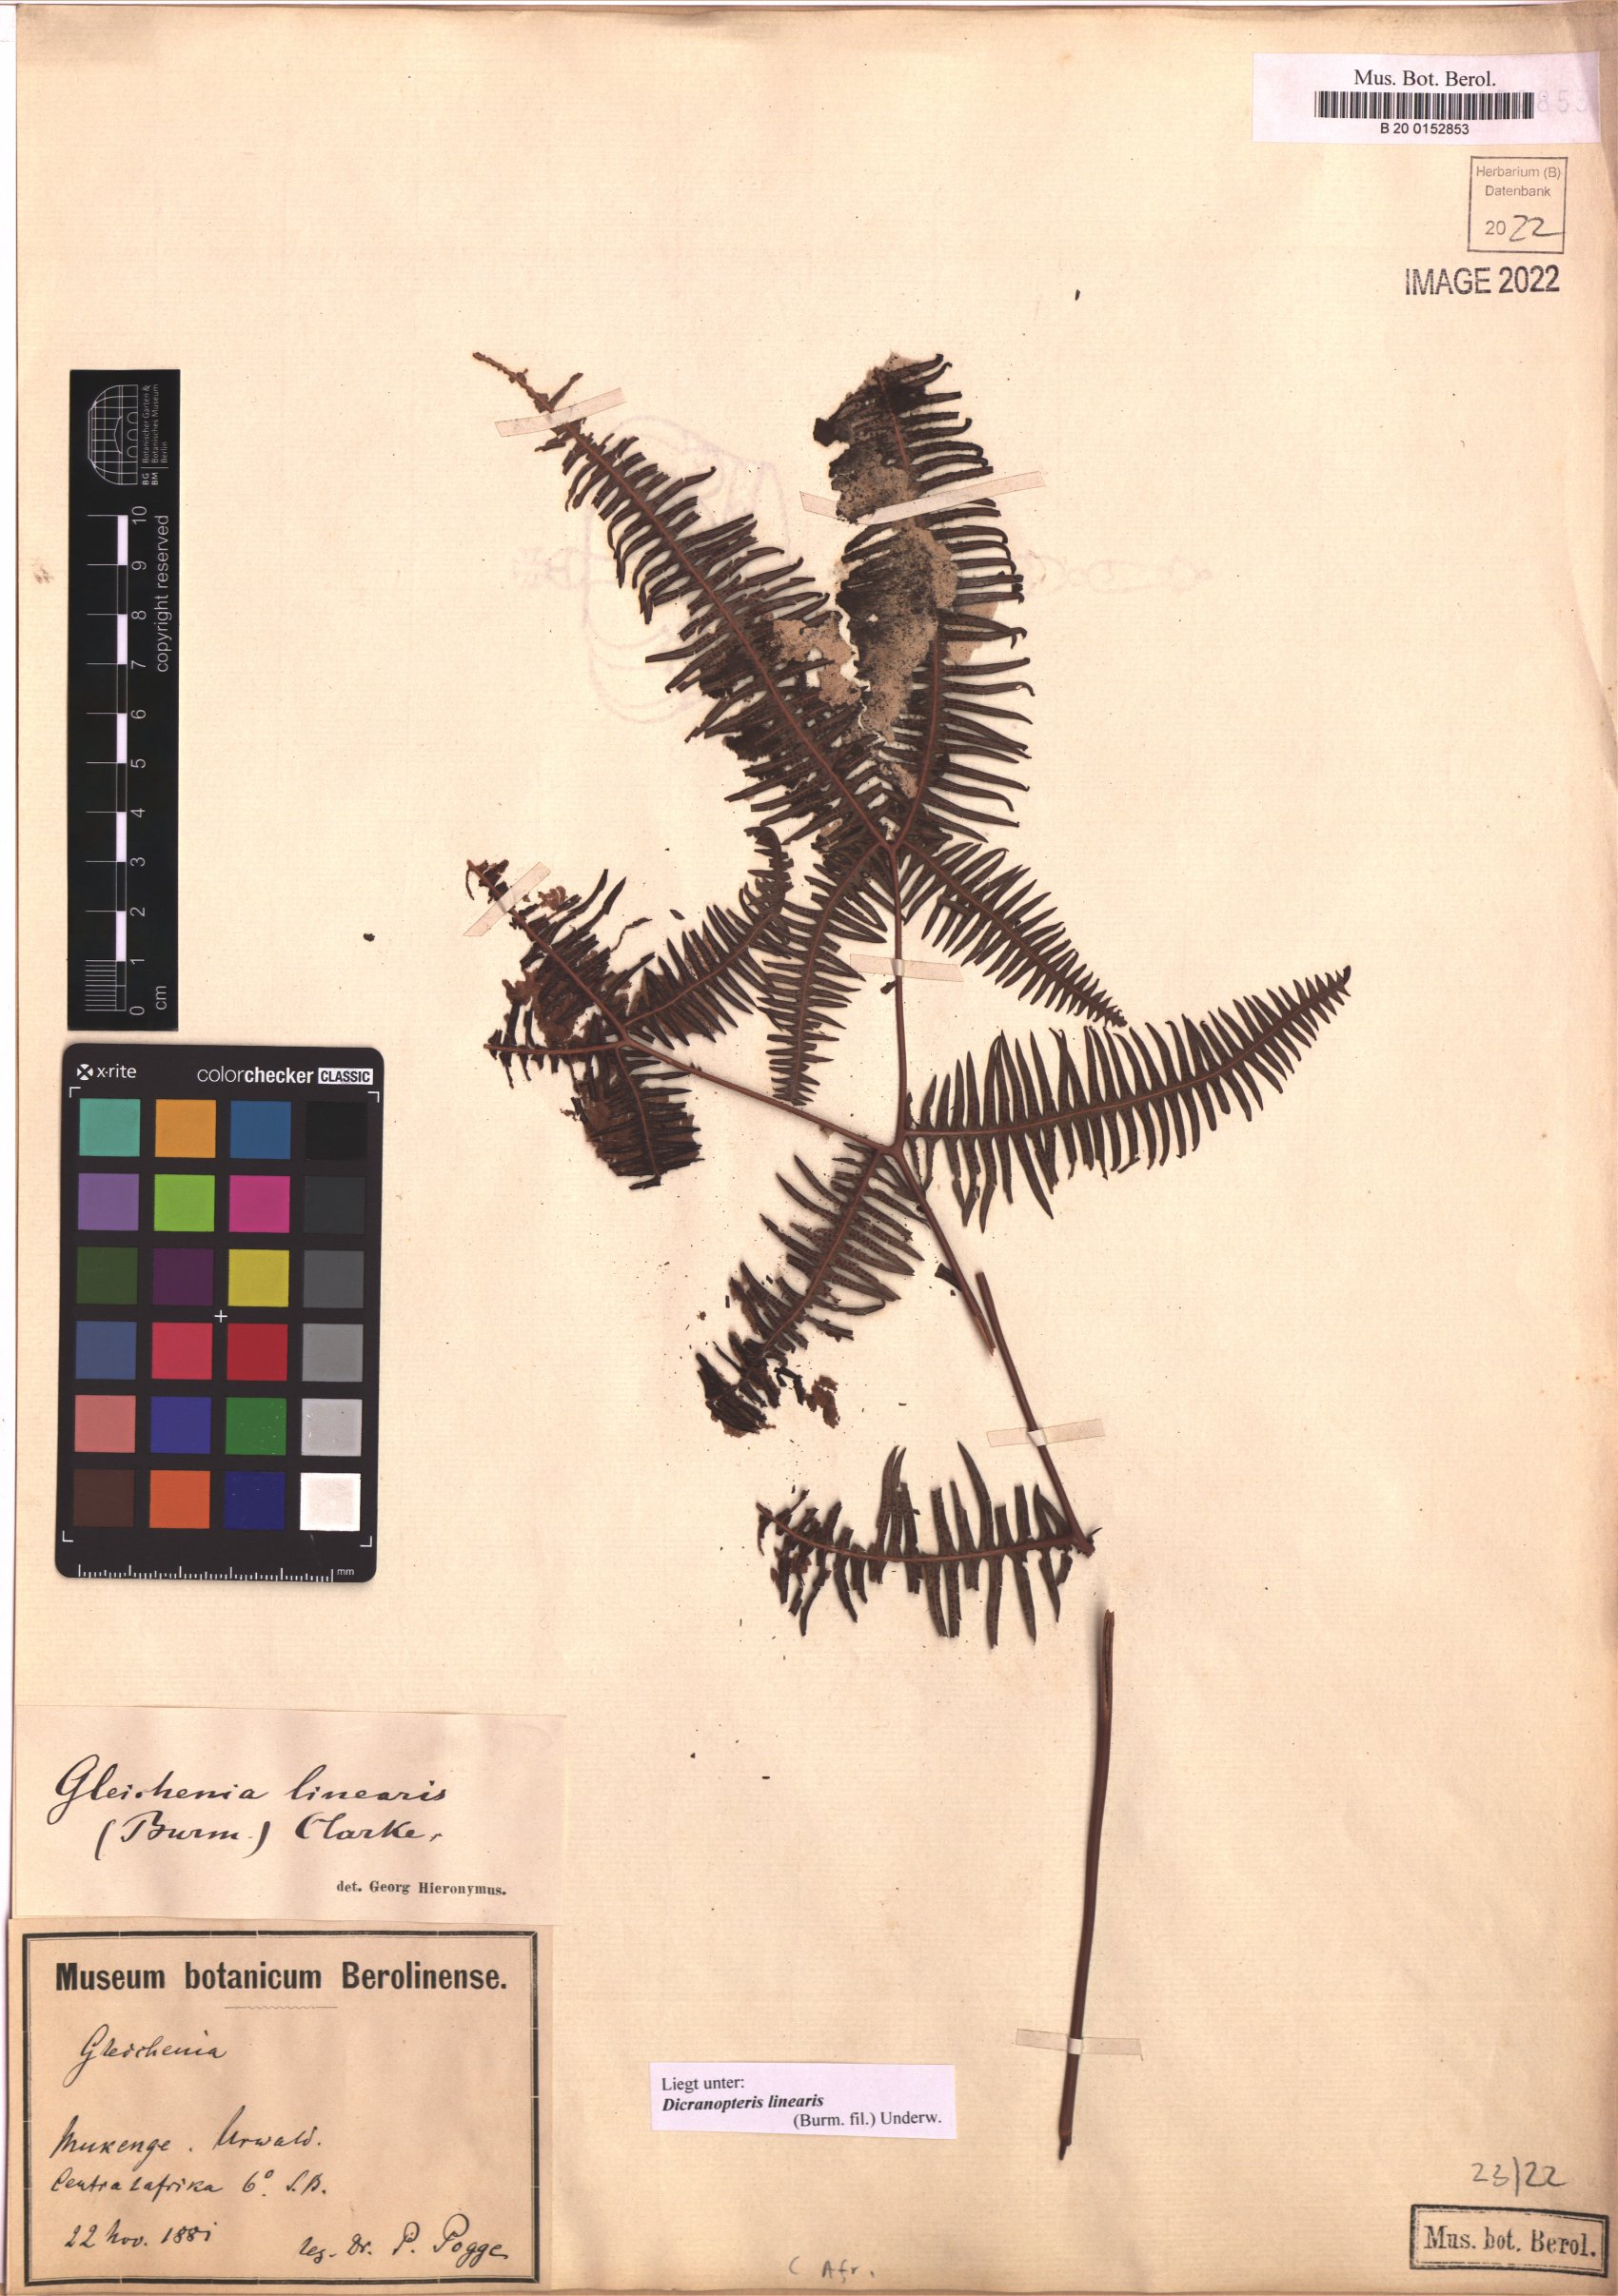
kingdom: Plantae
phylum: Tracheophyta
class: Polypodiopsida
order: Gleicheniales
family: Gleicheniaceae
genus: Dicranopteris
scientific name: Dicranopteris linearis
